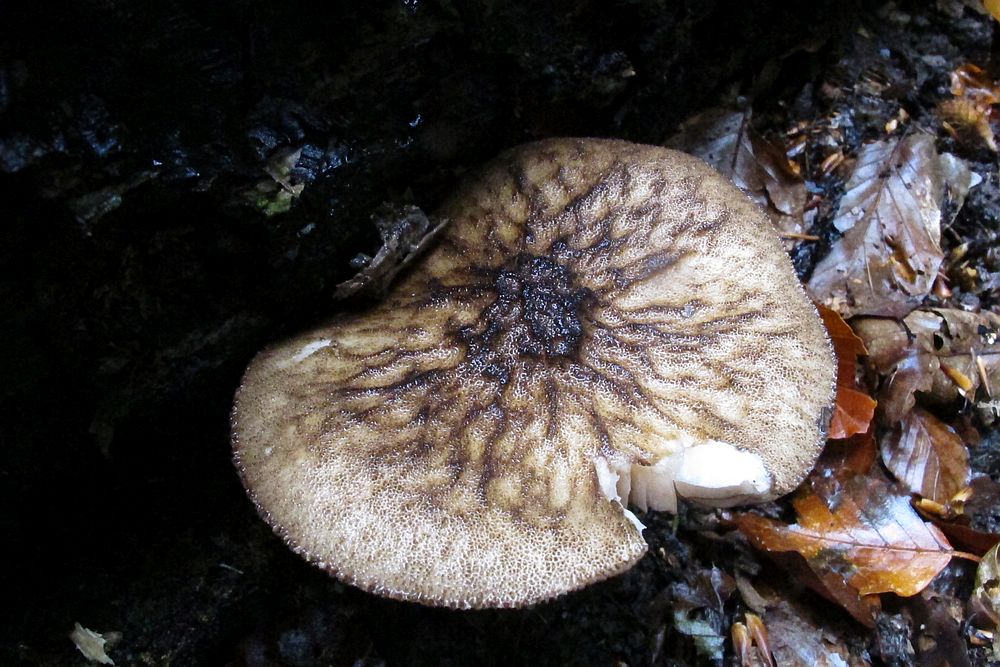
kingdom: Fungi
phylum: Basidiomycota
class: Agaricomycetes
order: Agaricales
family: Pluteaceae
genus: Pluteus
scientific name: Pluteus umbrosus
